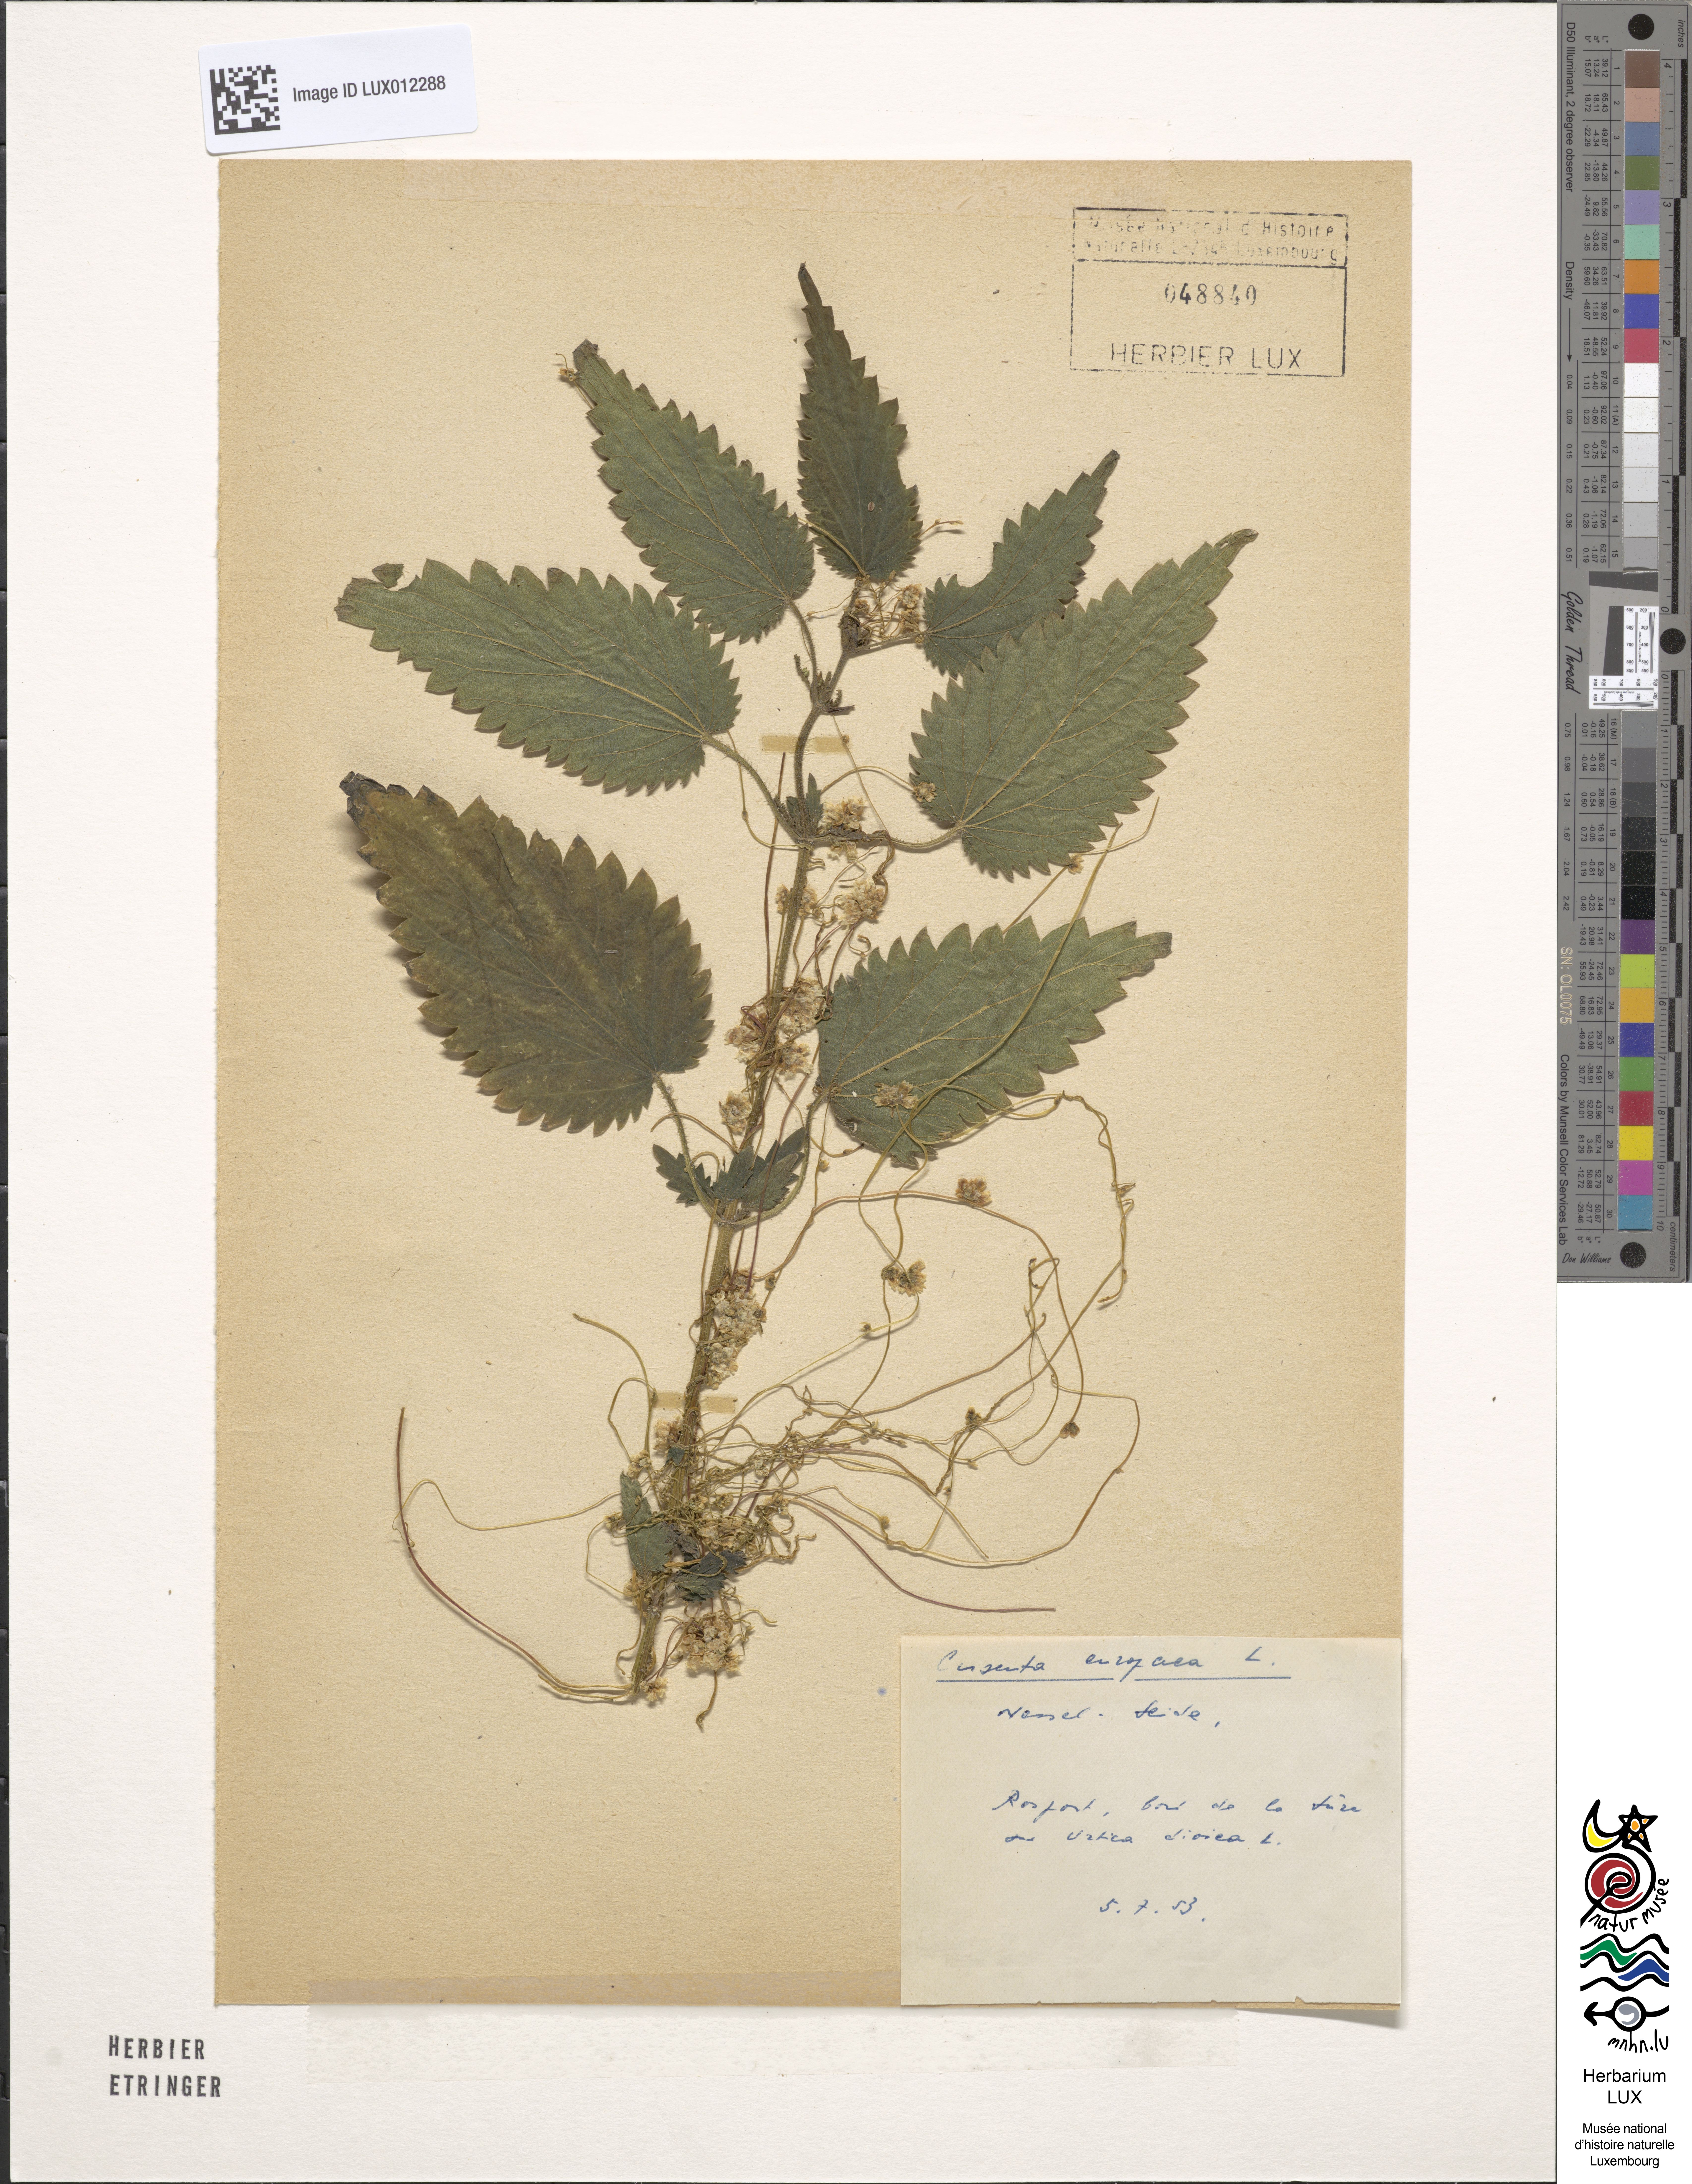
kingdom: Plantae
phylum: Tracheophyta
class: Magnoliopsida
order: Solanales
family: Convolvulaceae
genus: Cuscuta
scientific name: Cuscuta europaea
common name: Greater dodder
